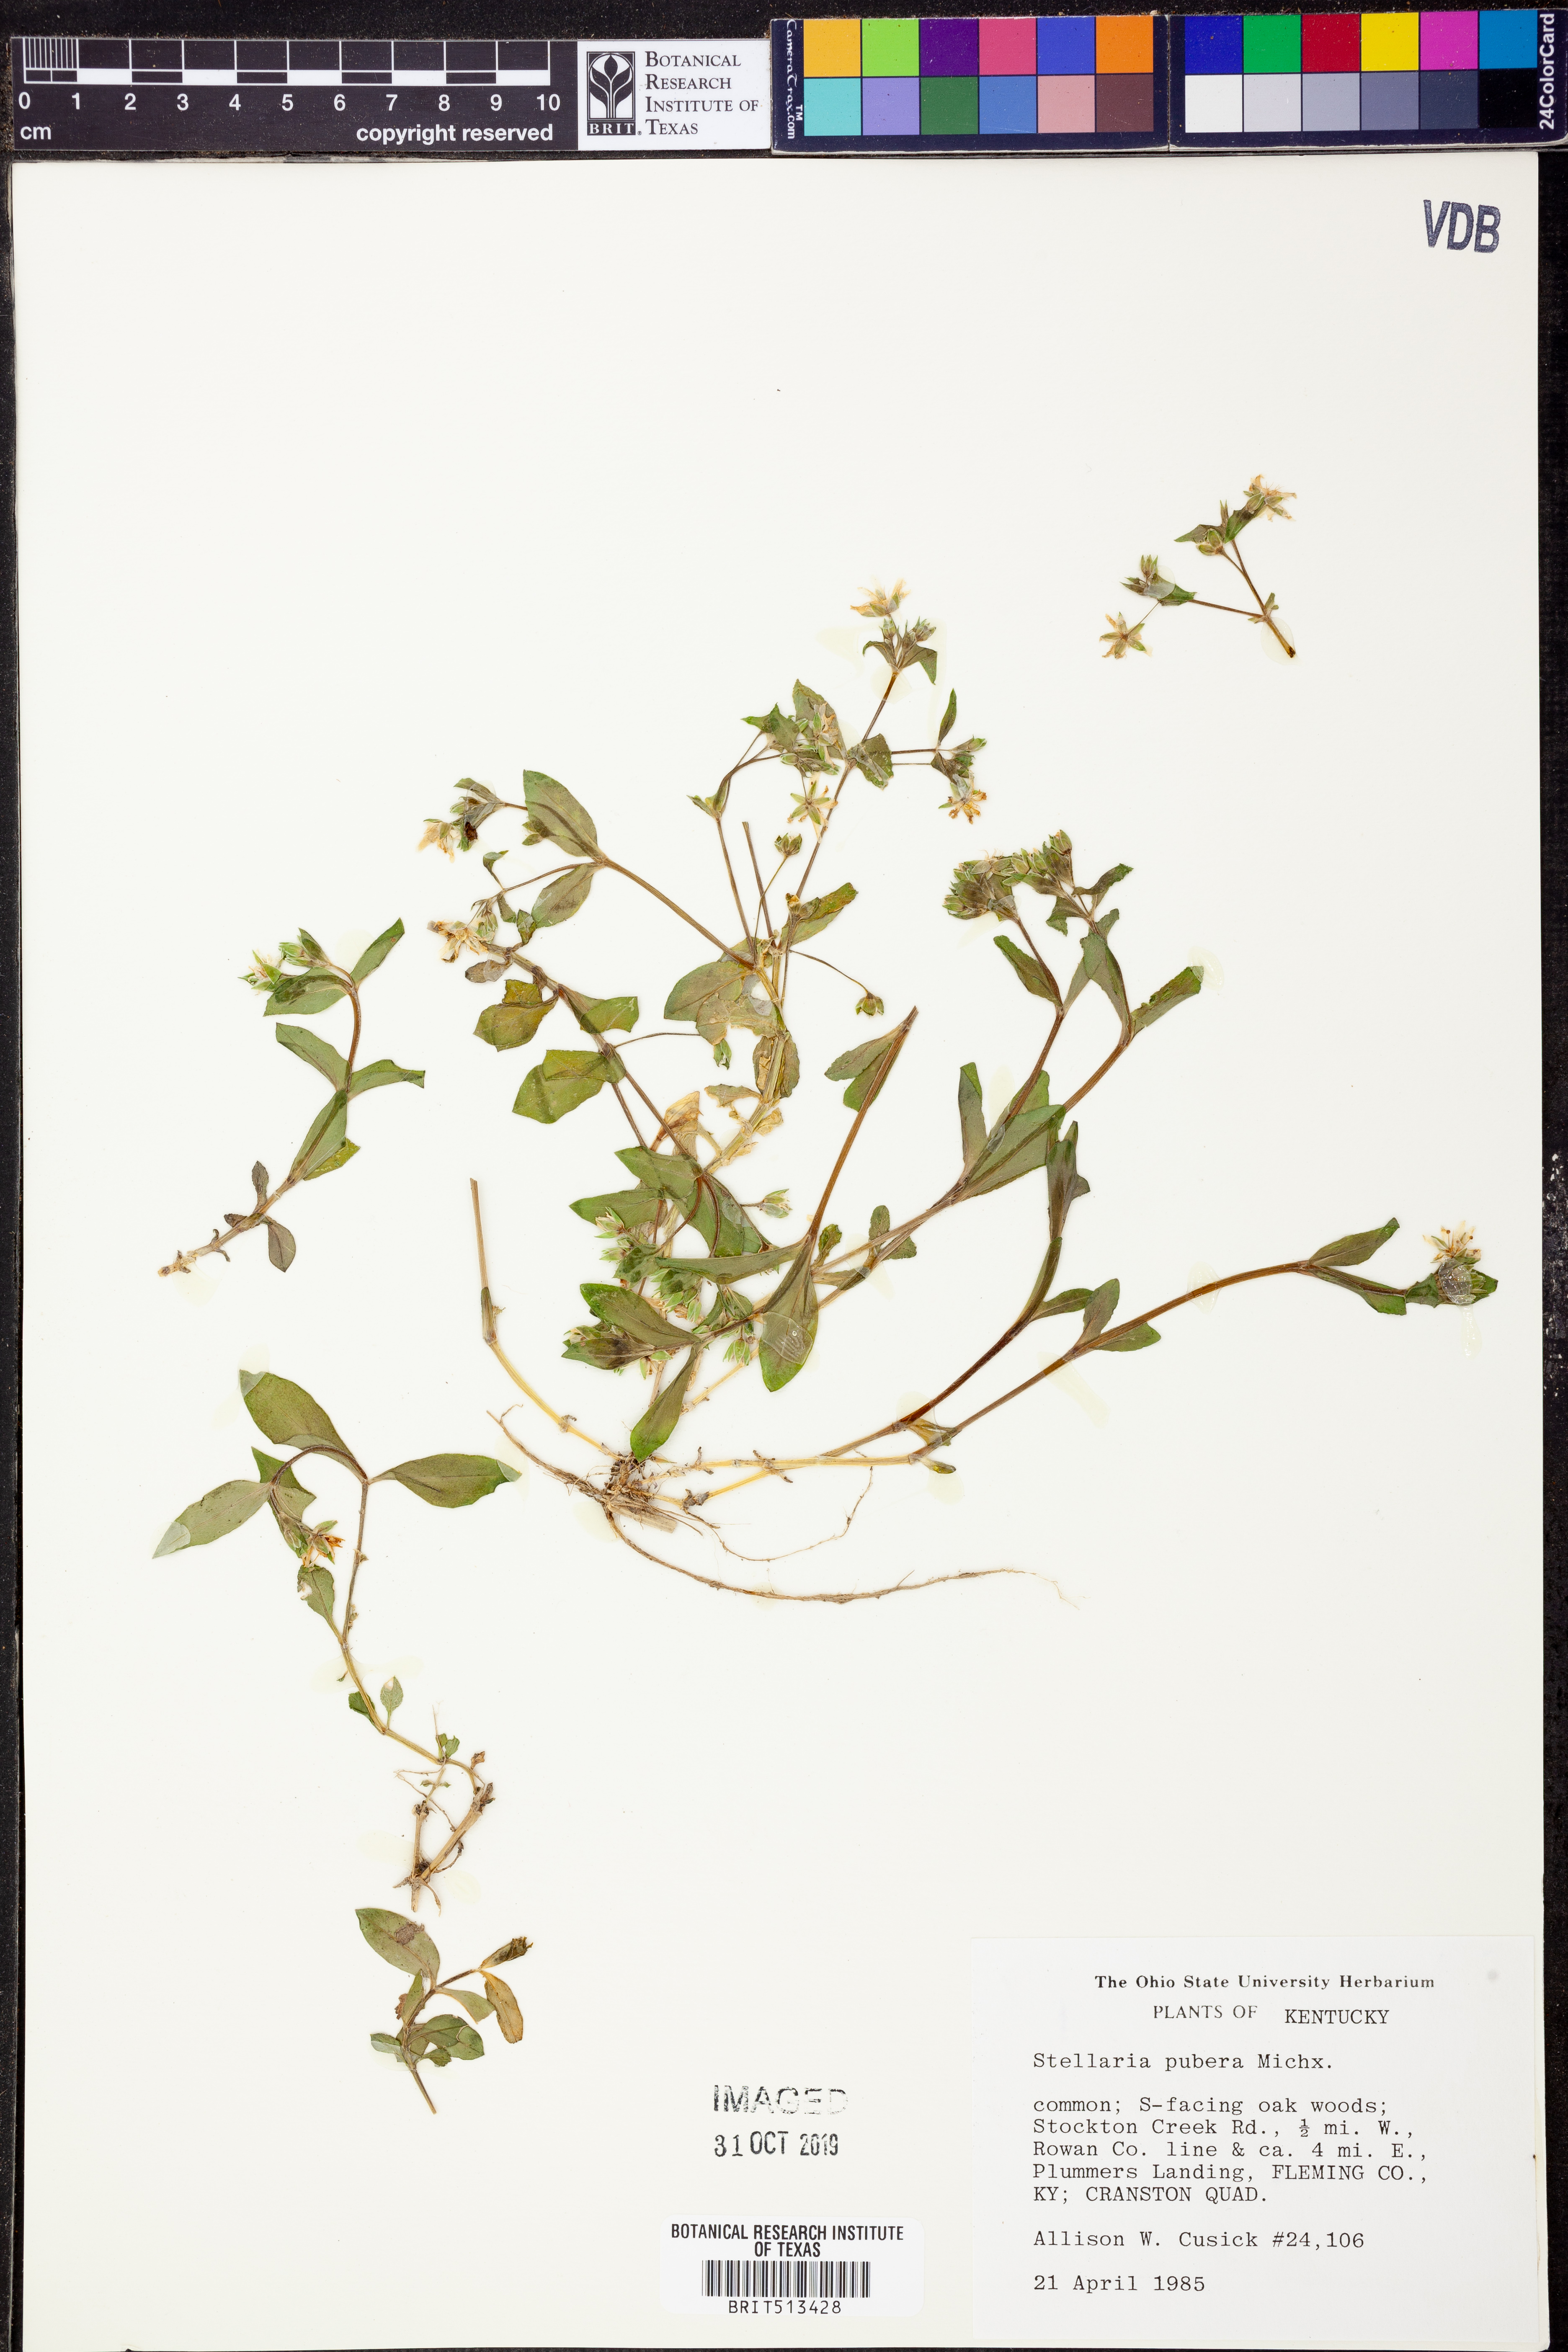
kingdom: Plantae
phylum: Tracheophyta
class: Magnoliopsida
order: Caryophyllales
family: Caryophyllaceae
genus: Stellaria
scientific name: Stellaria pubera
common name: Star chickweed
